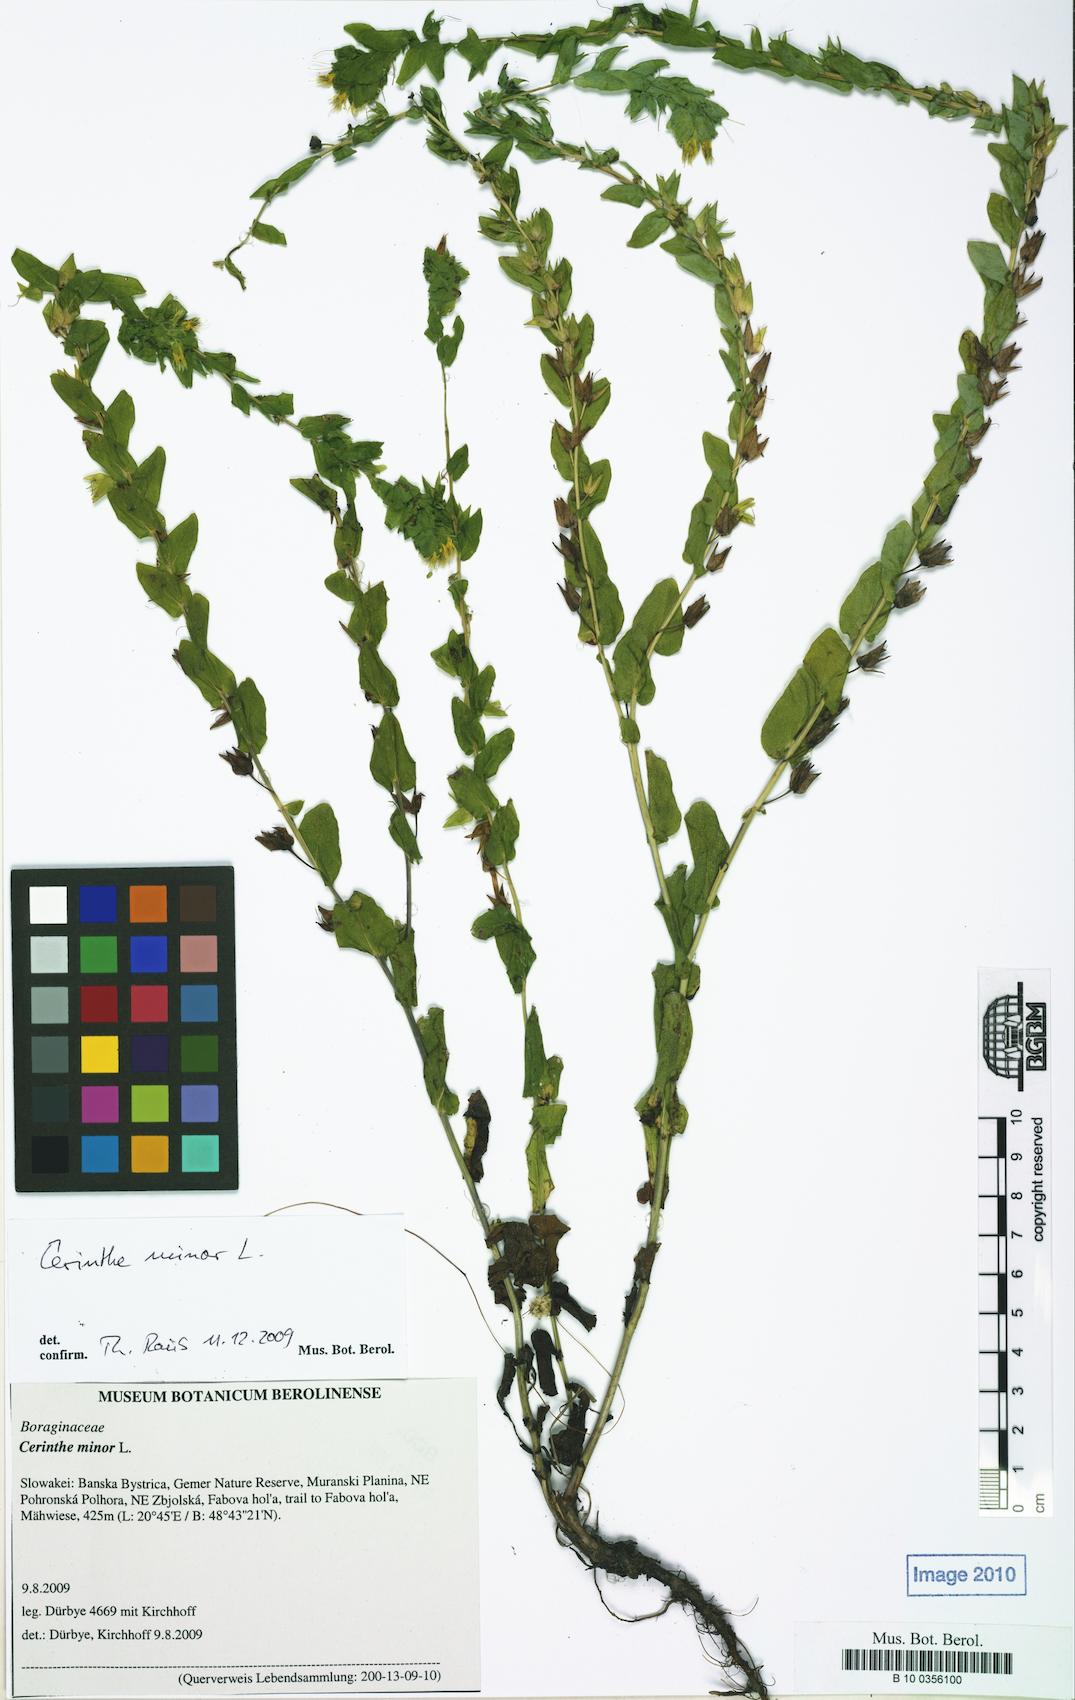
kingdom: Plantae
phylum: Tracheophyta
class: Magnoliopsida
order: Boraginales
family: Boraginaceae
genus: Cerinthe
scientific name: Cerinthe minor
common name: Lesser honeywort
